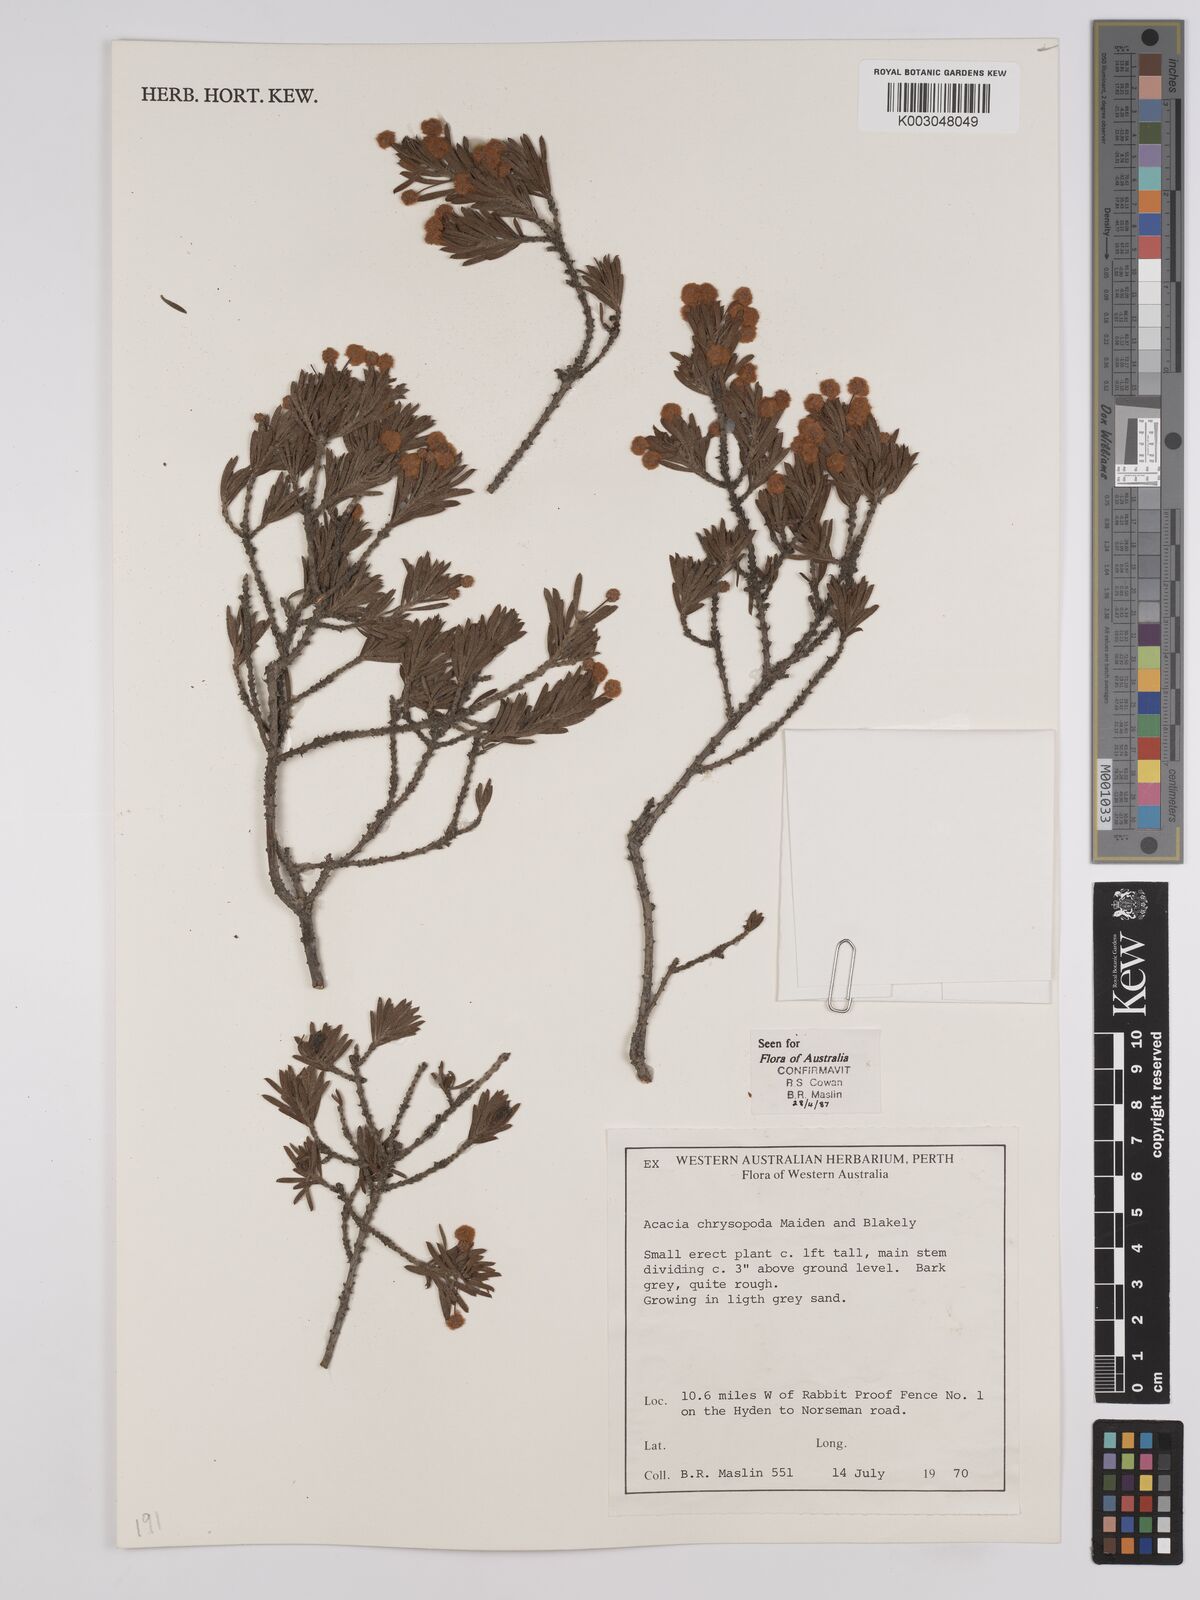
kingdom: Plantae
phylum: Tracheophyta
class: Magnoliopsida
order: Fabales
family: Fabaceae
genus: Acacia
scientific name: Acacia chrysopoda
